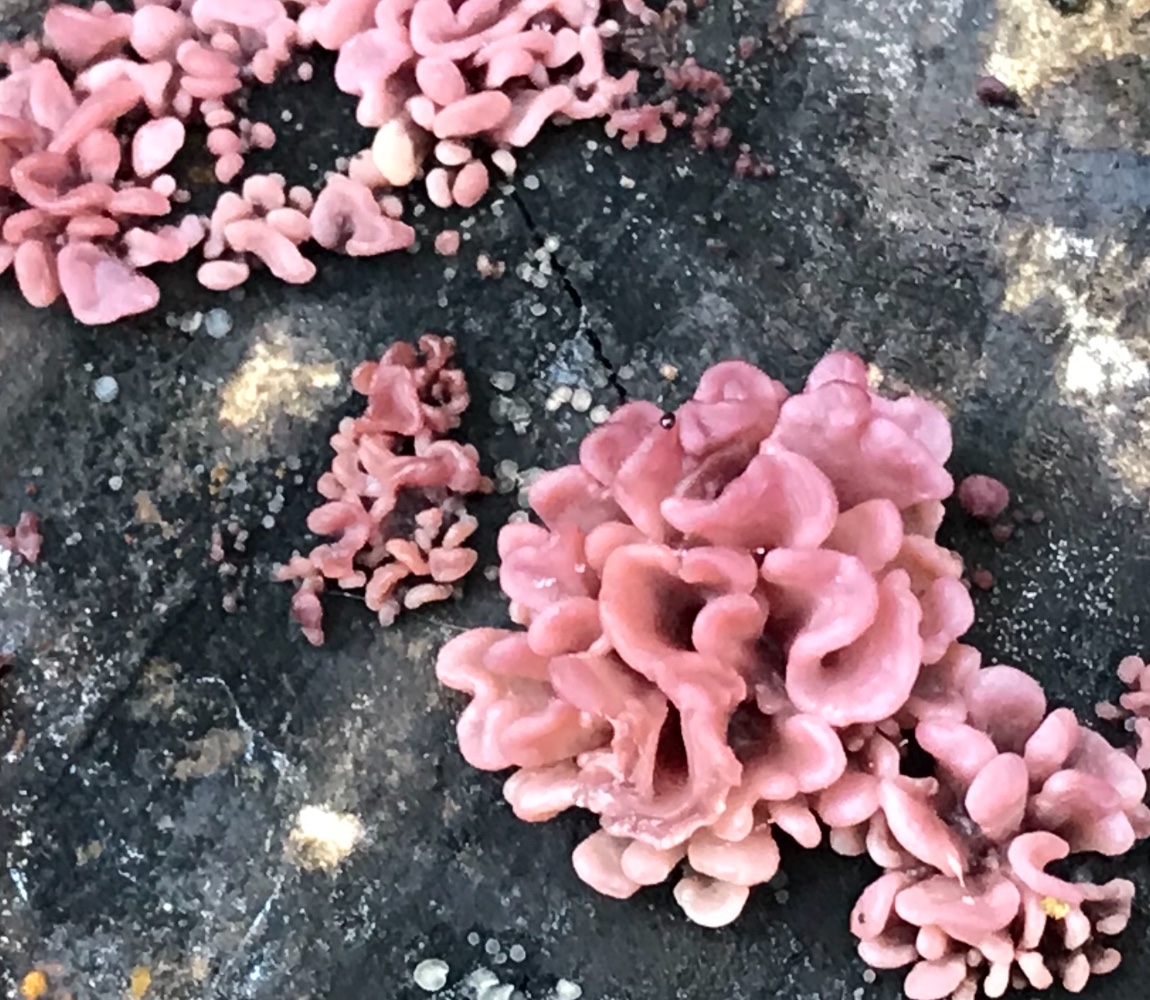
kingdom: Fungi
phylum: Ascomycota
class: Leotiomycetes
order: Helotiales
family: Gelatinodiscaceae
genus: Ascocoryne
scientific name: Ascocoryne sarcoides
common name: rødlilla sejskive
